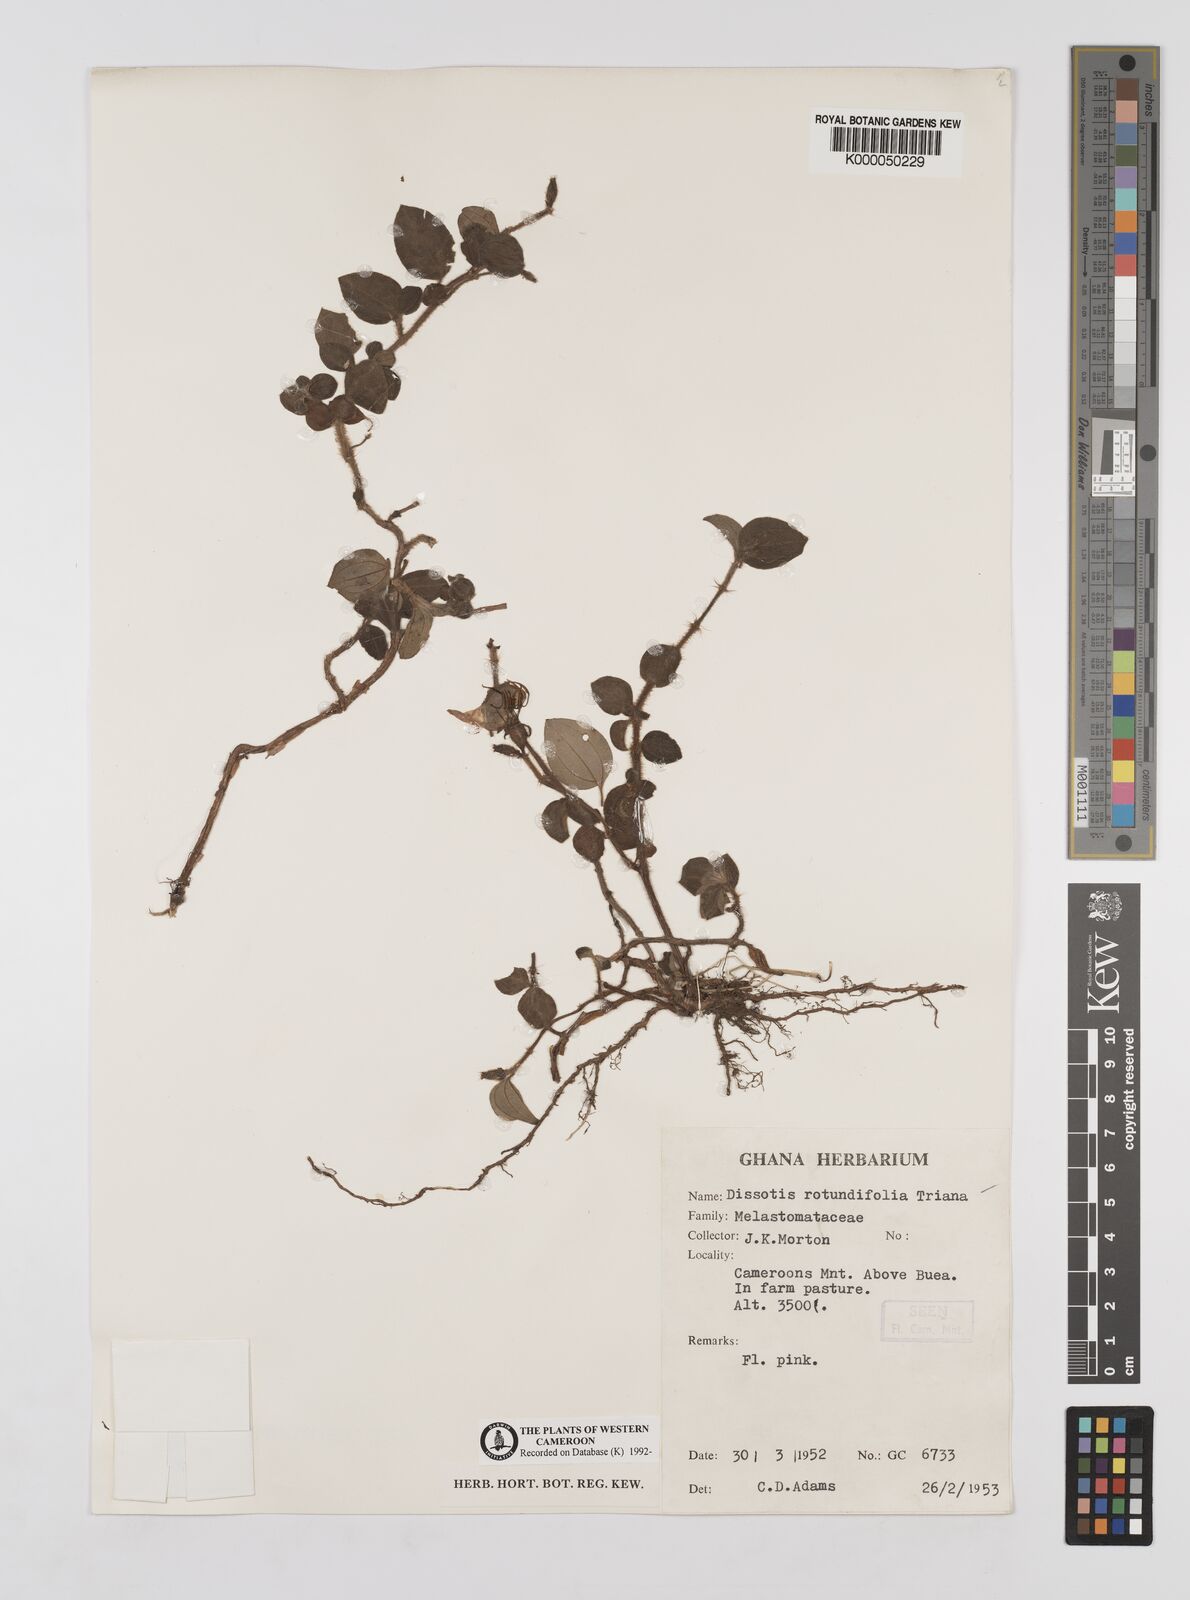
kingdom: Plantae
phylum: Tracheophyta
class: Magnoliopsida
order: Myrtales
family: Melastomataceae
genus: Heterotis
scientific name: Heterotis rotundifolia
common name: Pinklady
